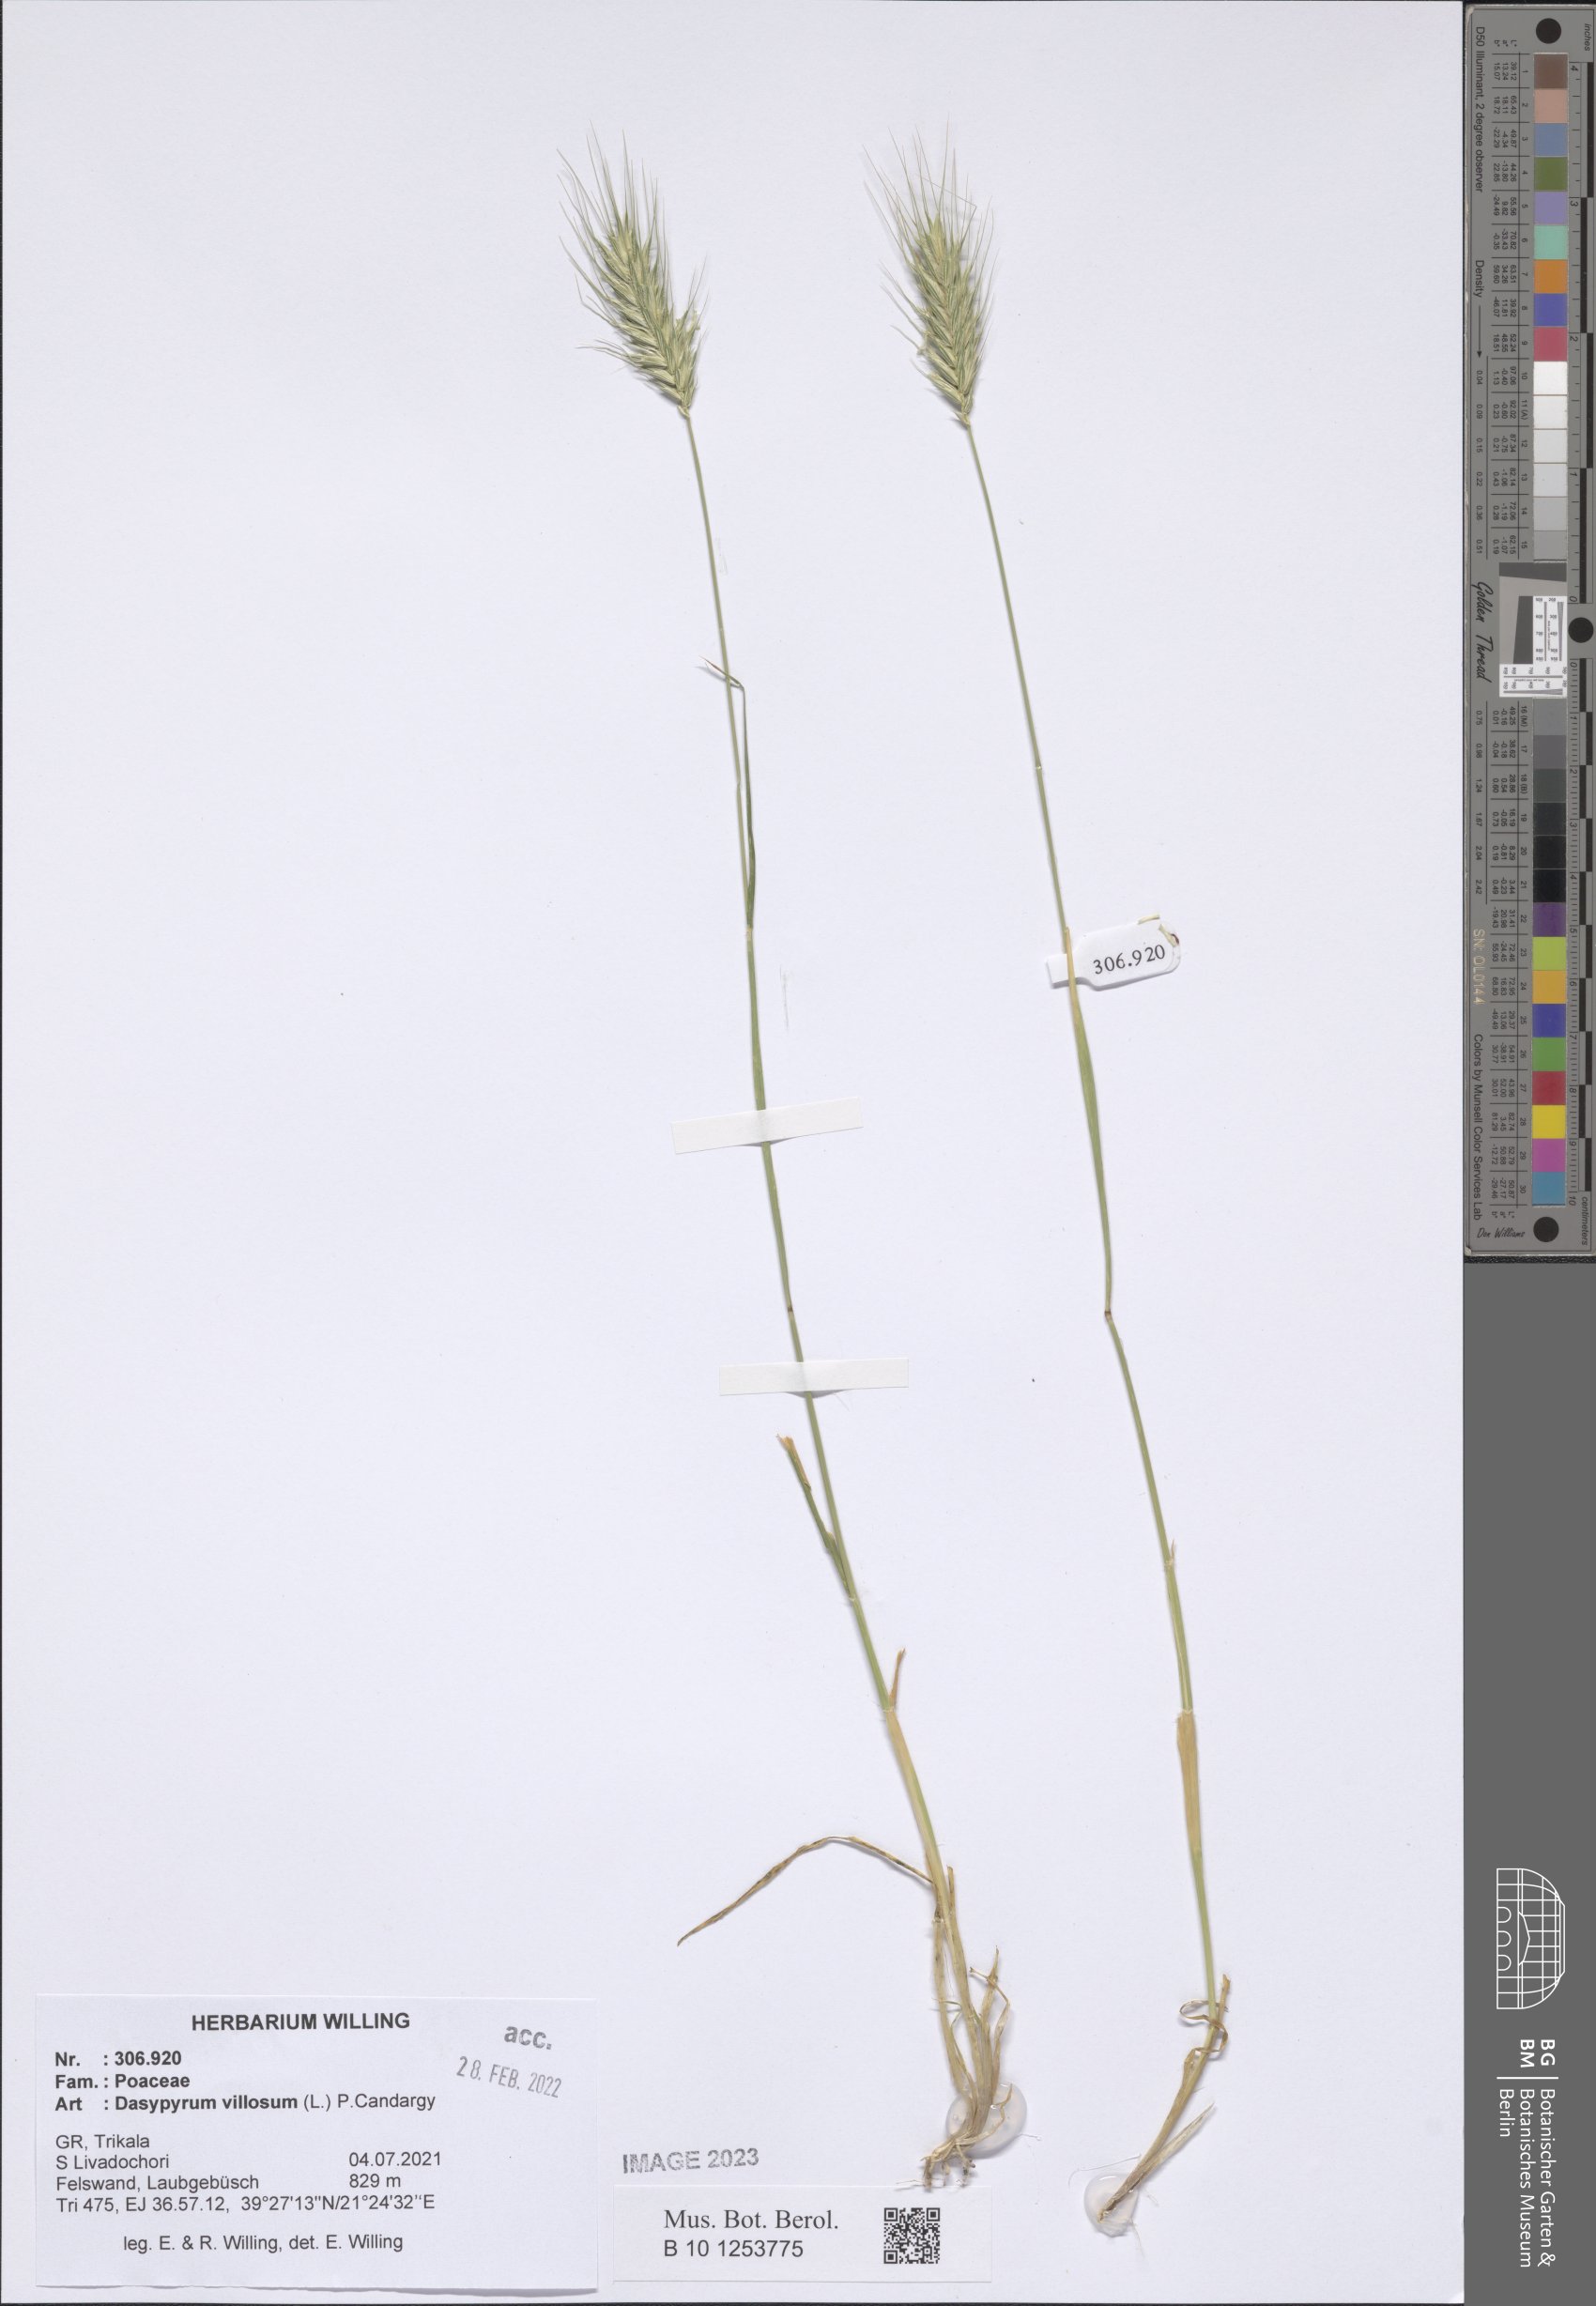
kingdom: Plantae
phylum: Tracheophyta
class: Liliopsida
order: Poales
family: Poaceae
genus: Dasypyrum
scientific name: Dasypyrum villosum
